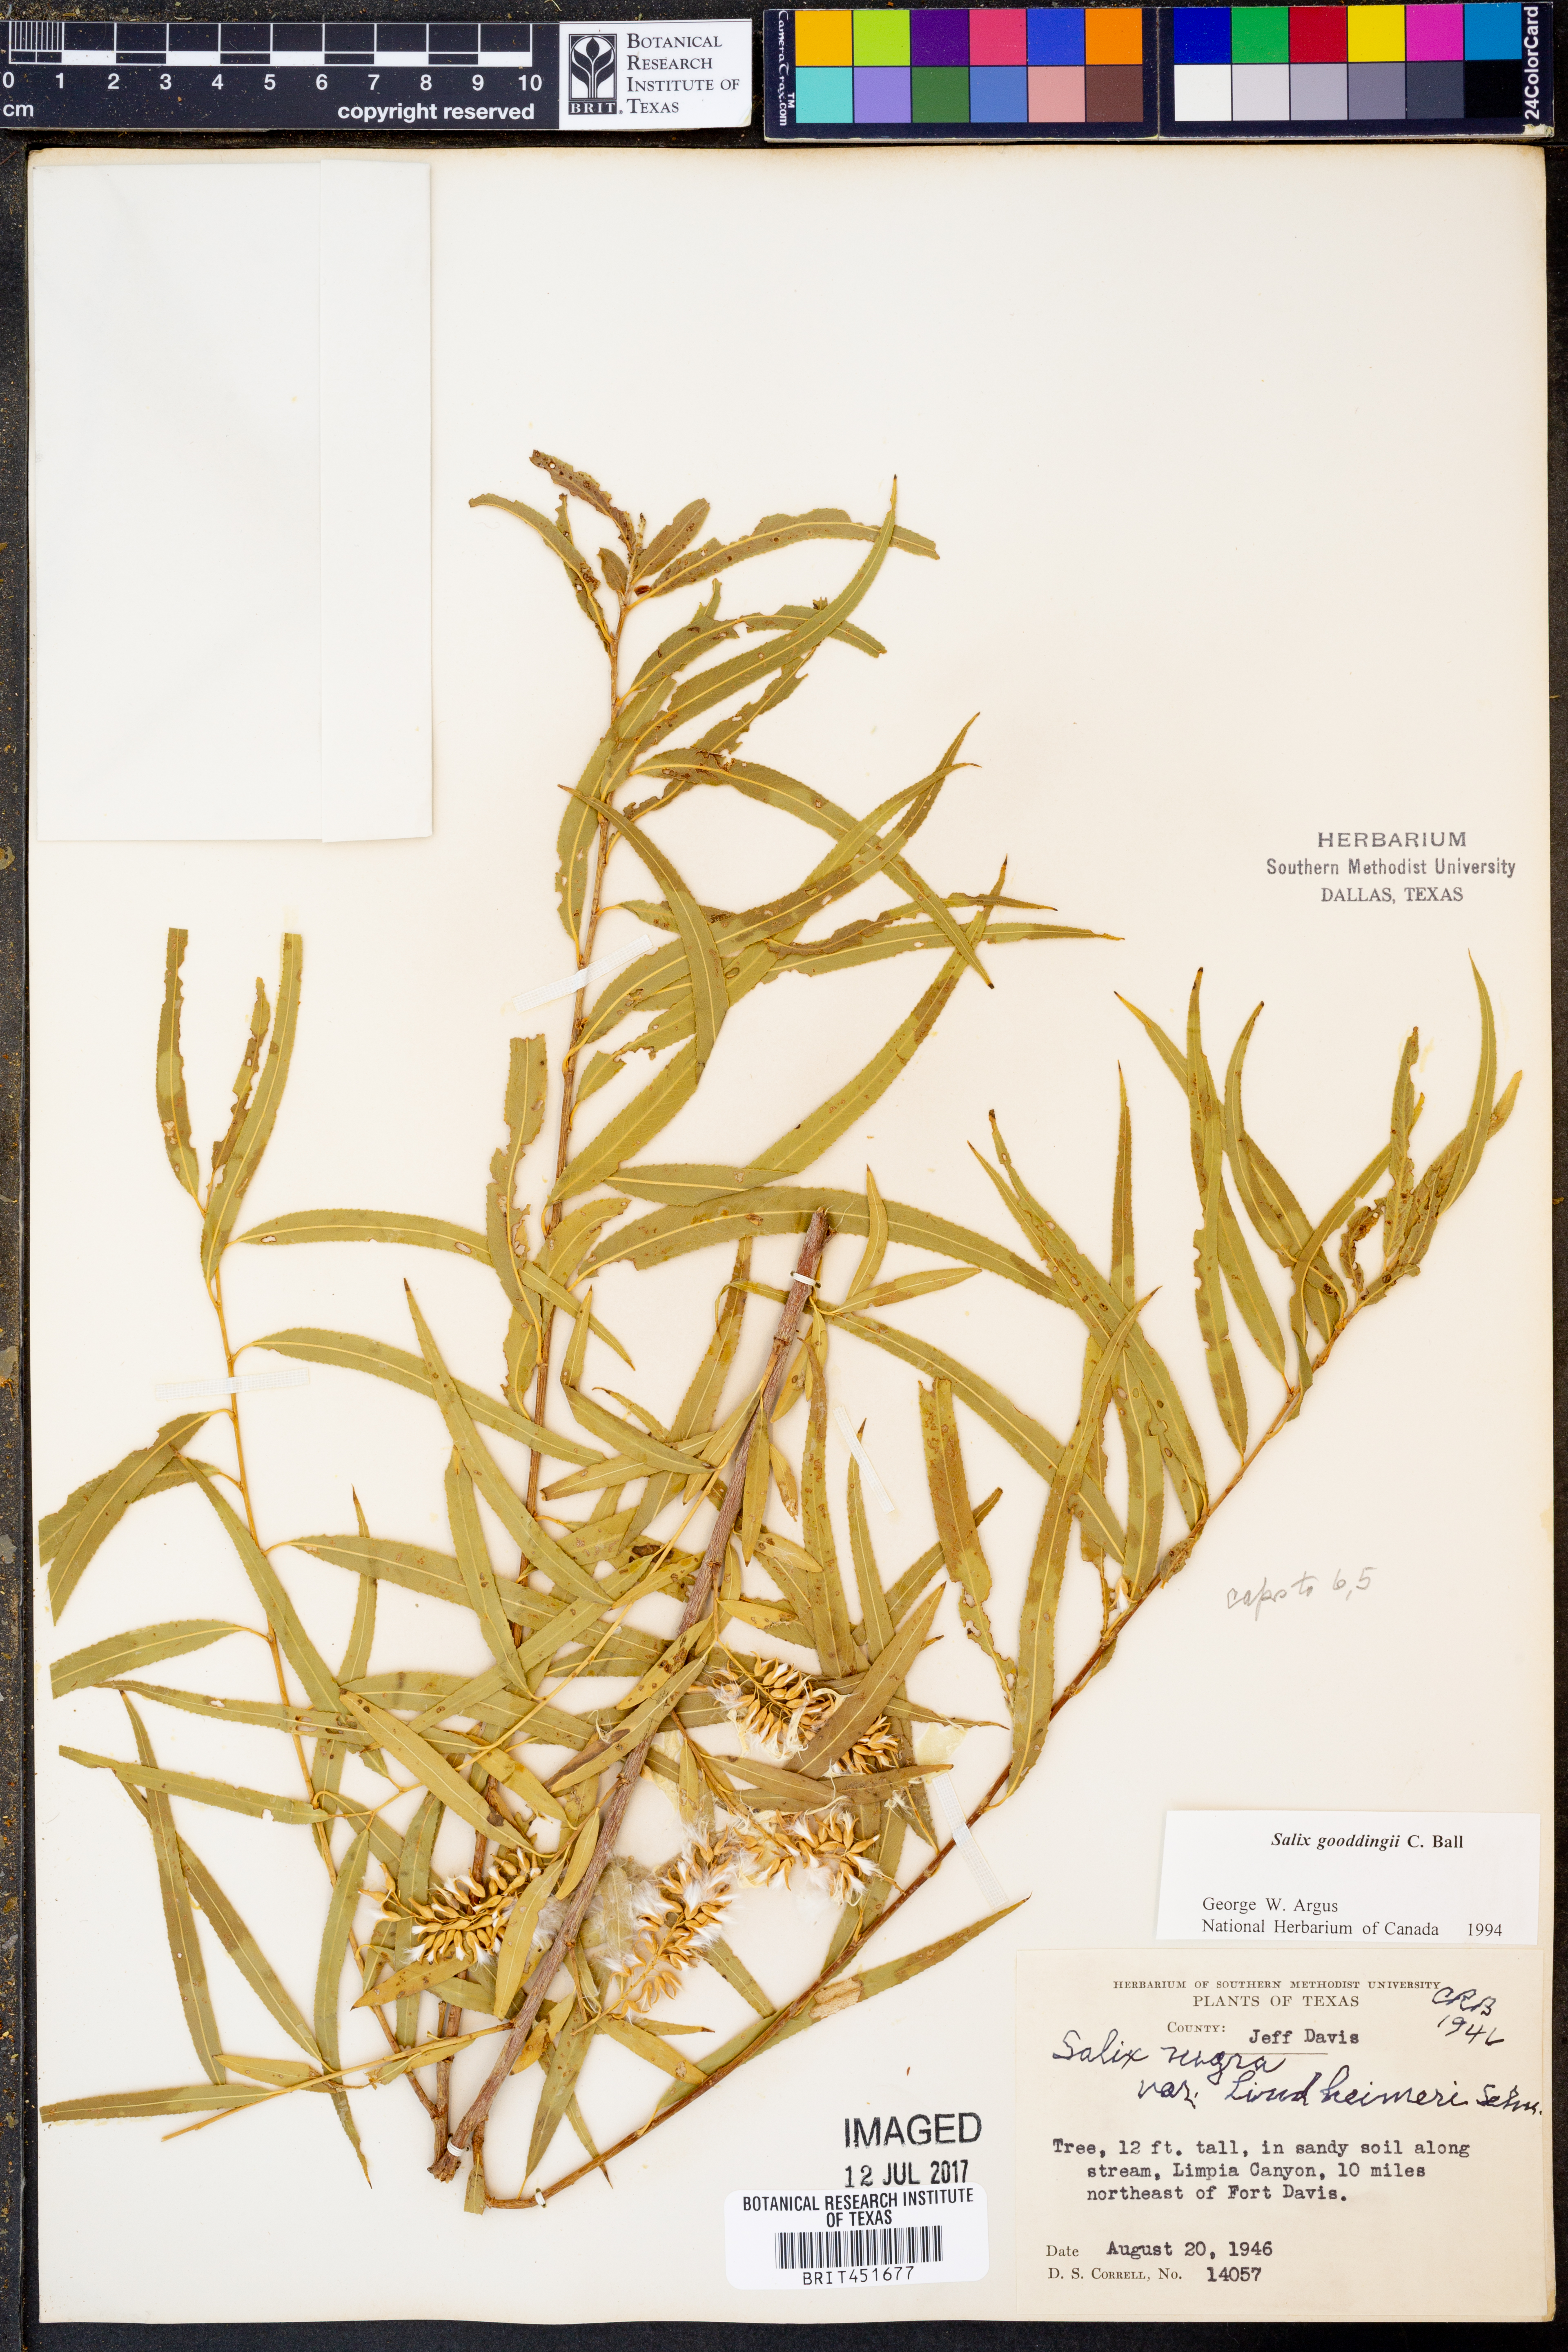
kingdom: Plantae
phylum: Tracheophyta
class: Magnoliopsida
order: Malpighiales
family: Salicaceae
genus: Salix
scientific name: Salix nigra
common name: Black willow
